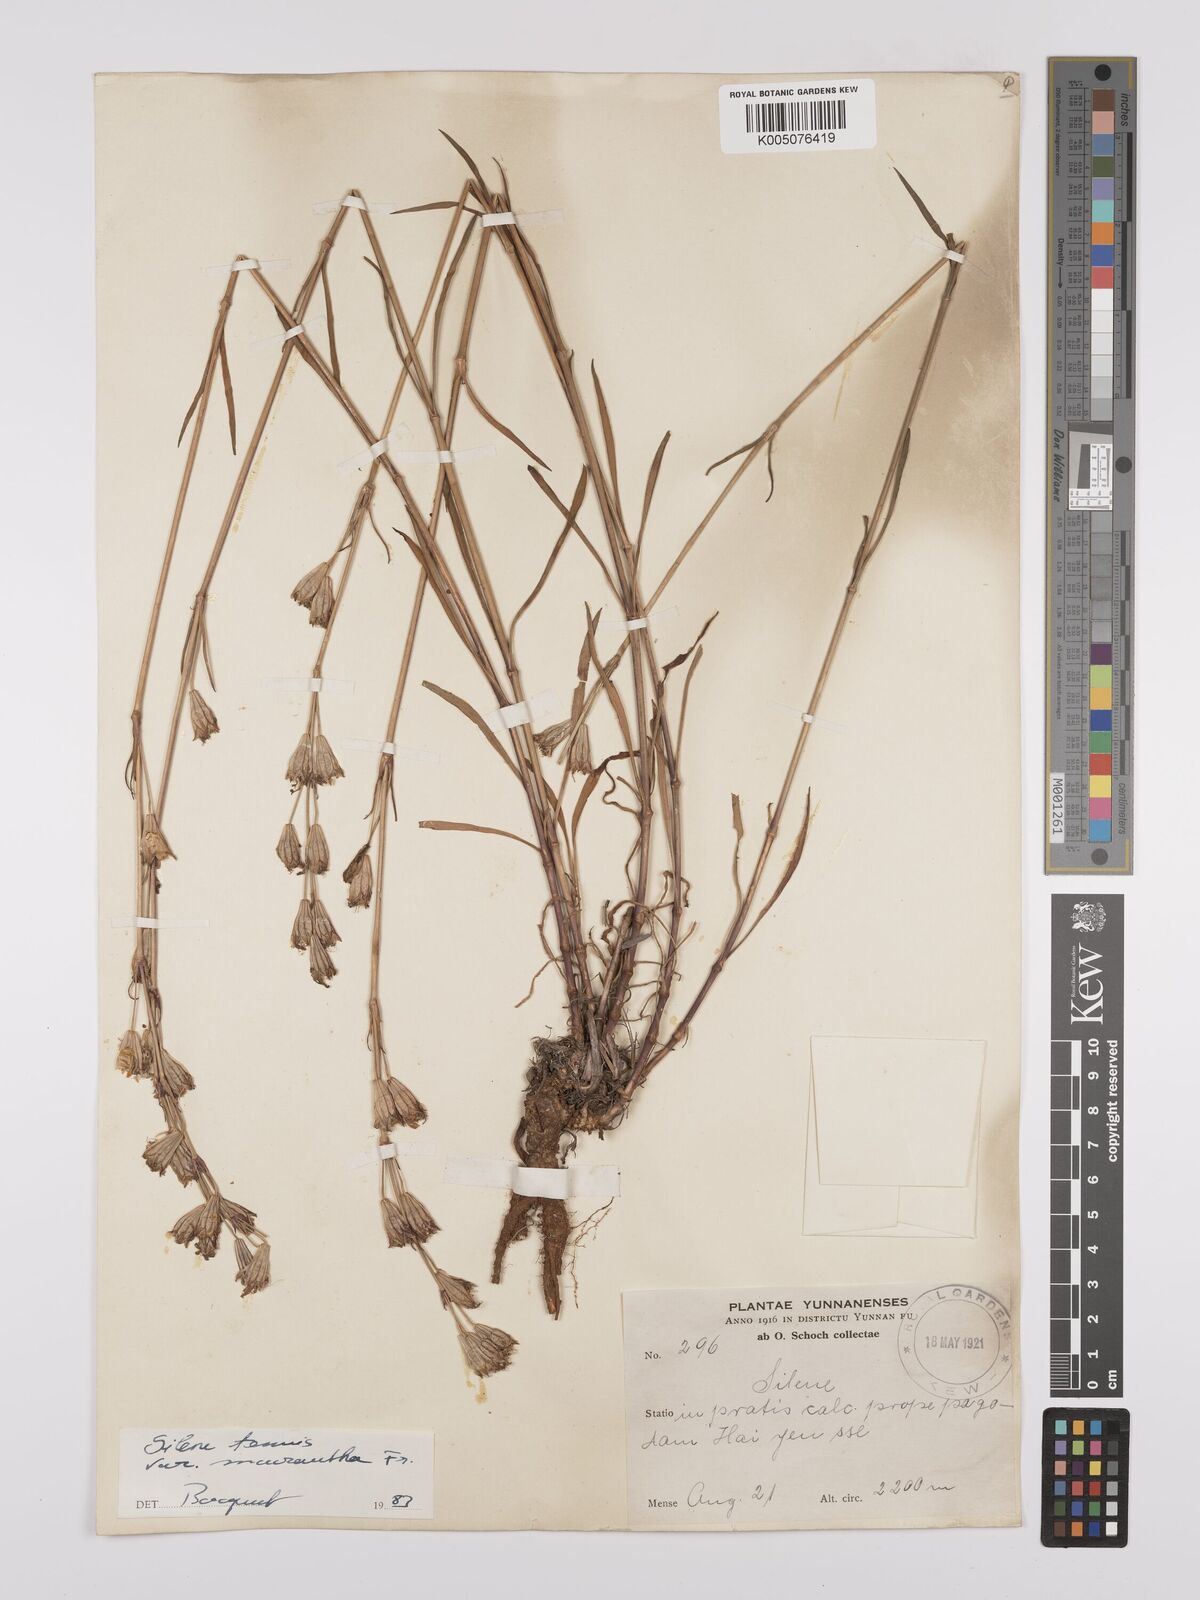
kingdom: Plantae
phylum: Tracheophyta
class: Magnoliopsida
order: Caryophyllales
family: Caryophyllaceae
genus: Silene
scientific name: Silene
